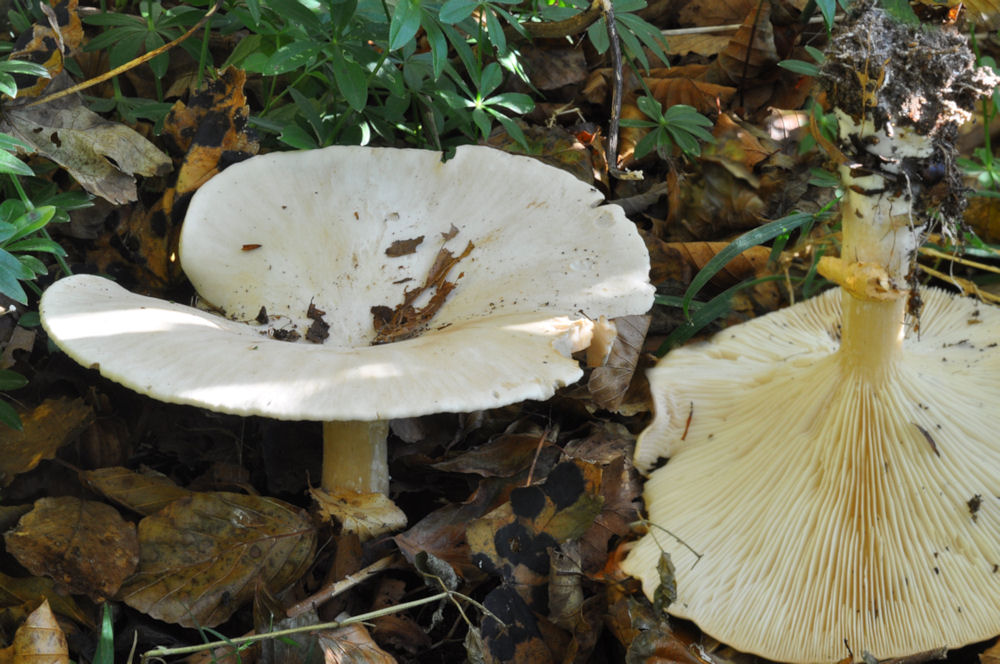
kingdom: Fungi
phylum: Basidiomycota
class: Agaricomycetes
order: Agaricales
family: Tricholomataceae
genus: Aspropaxillus
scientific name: Aspropaxillus giganteus
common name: kæmpe-tragtridderhat
